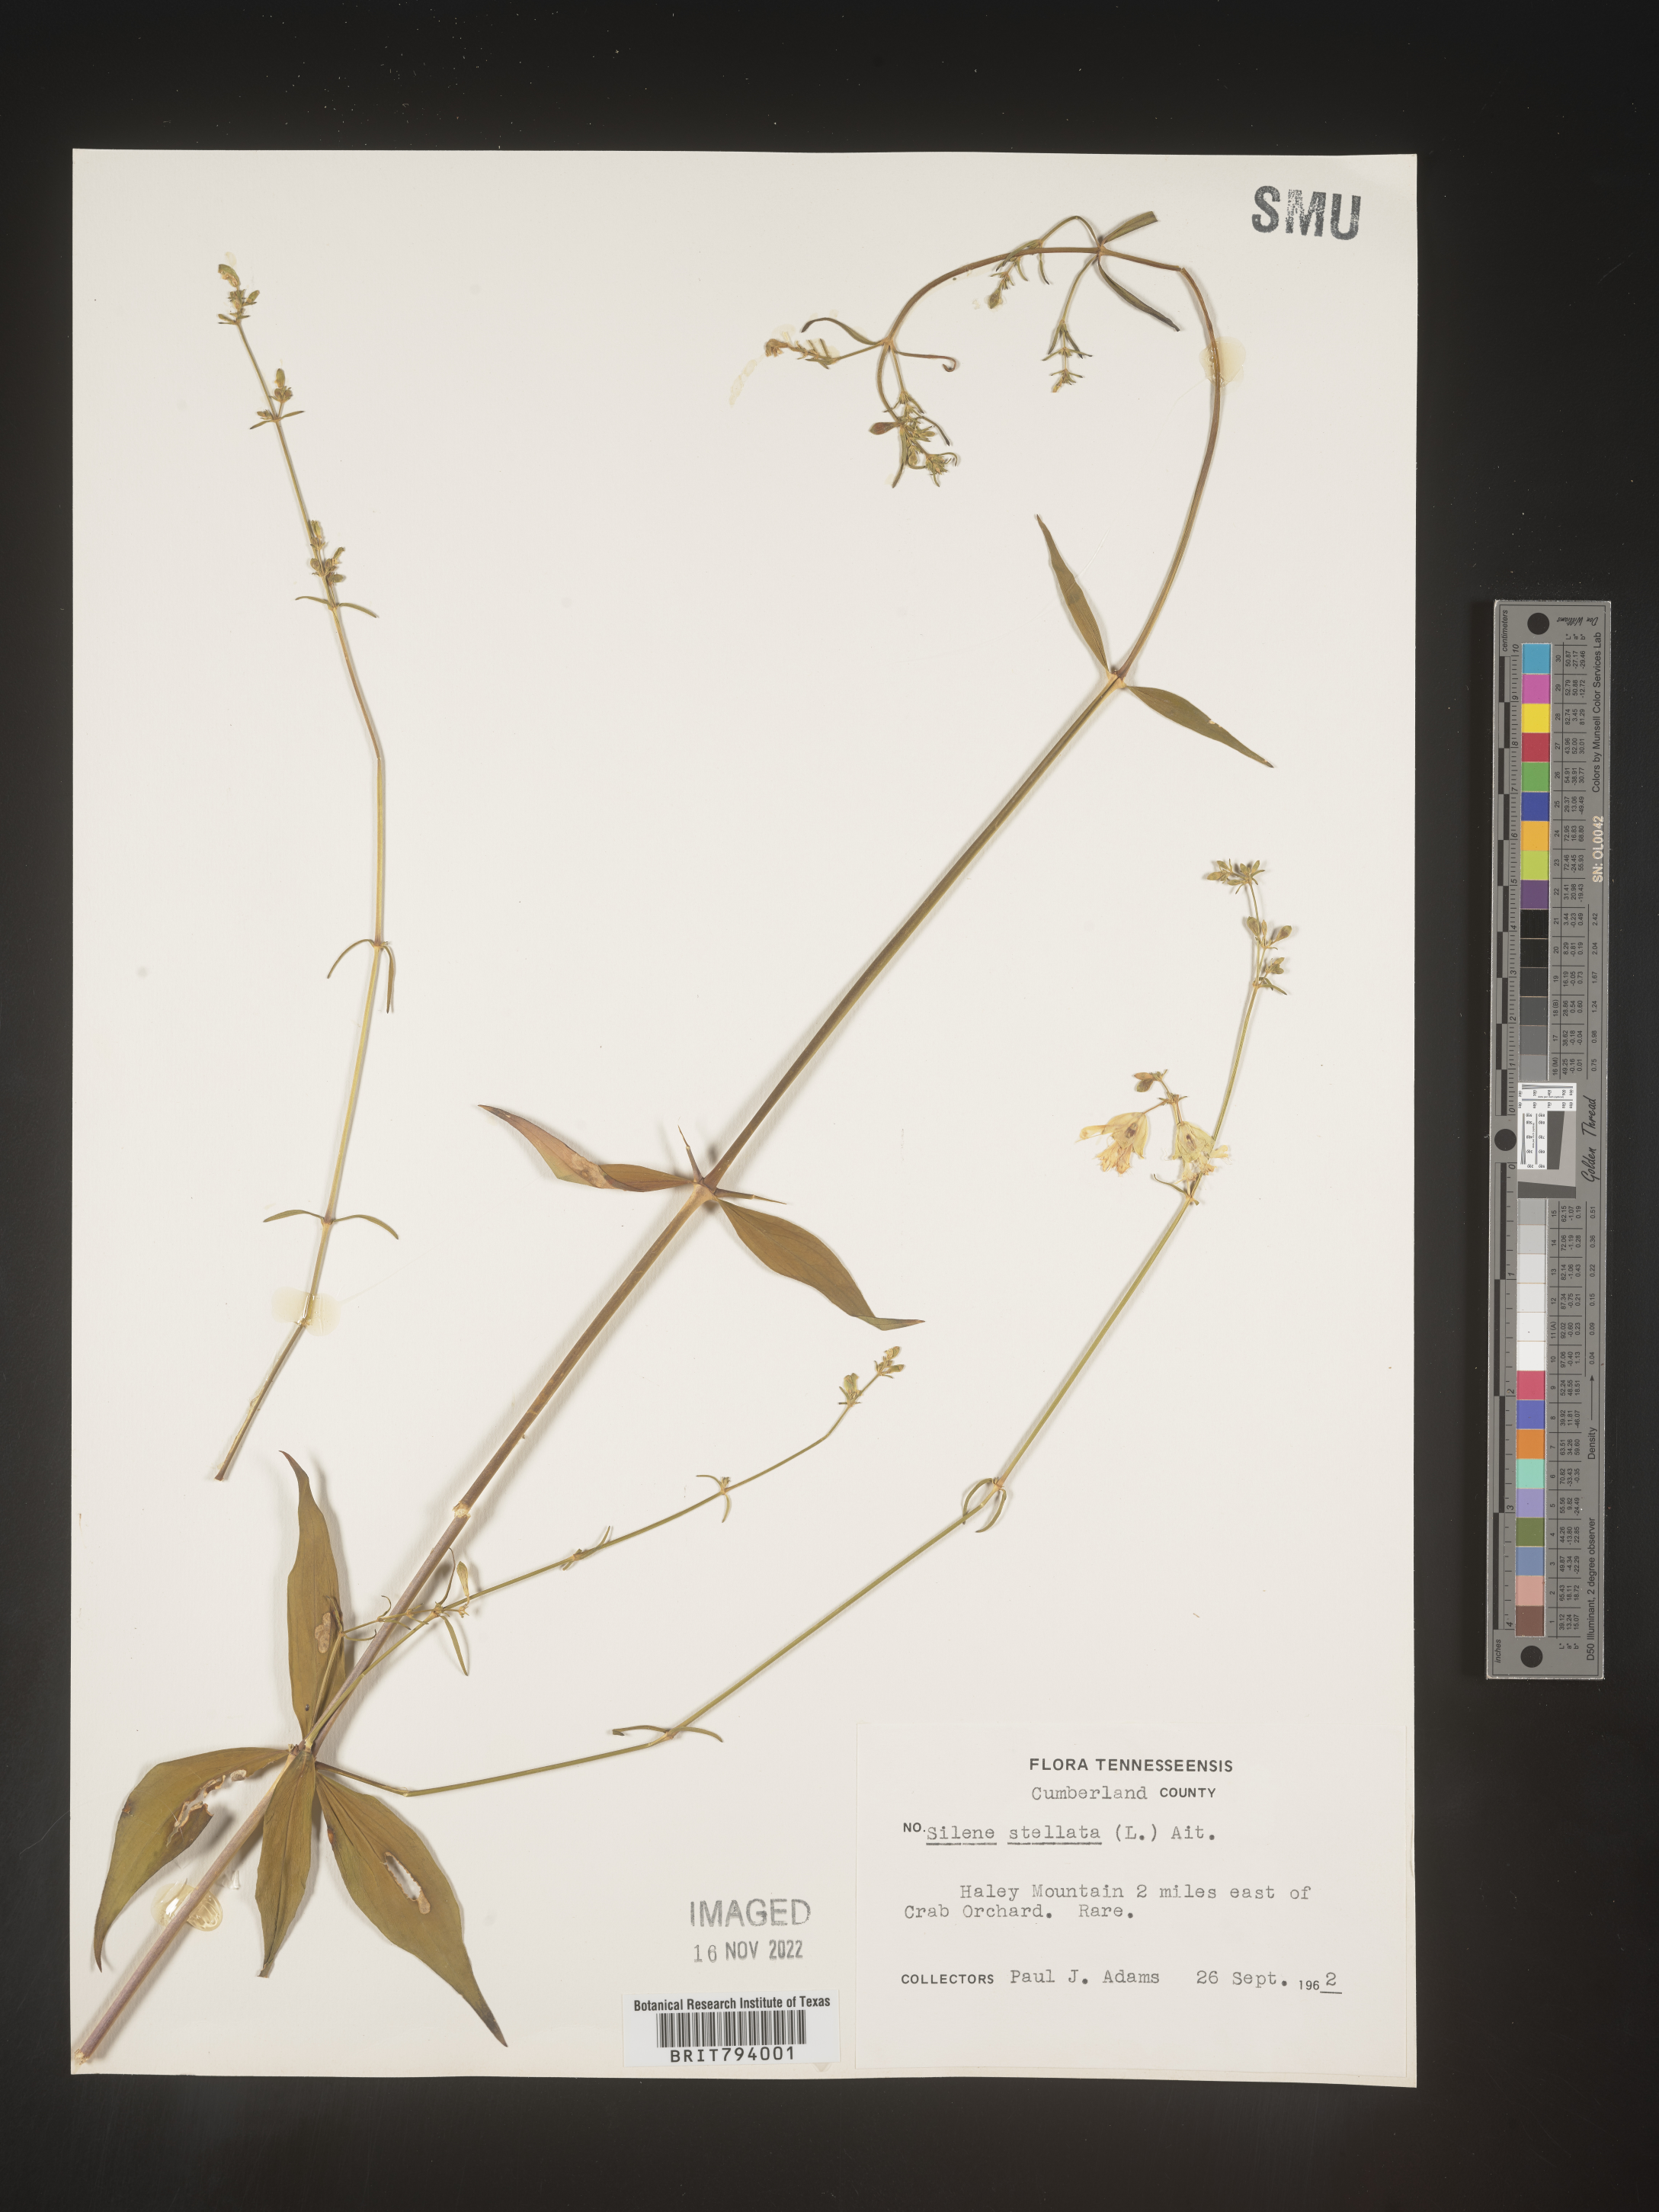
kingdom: Plantae
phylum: Tracheophyta
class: Magnoliopsida
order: Caryophyllales
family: Caryophyllaceae
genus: Silene
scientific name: Silene stellata
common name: Starry campion
